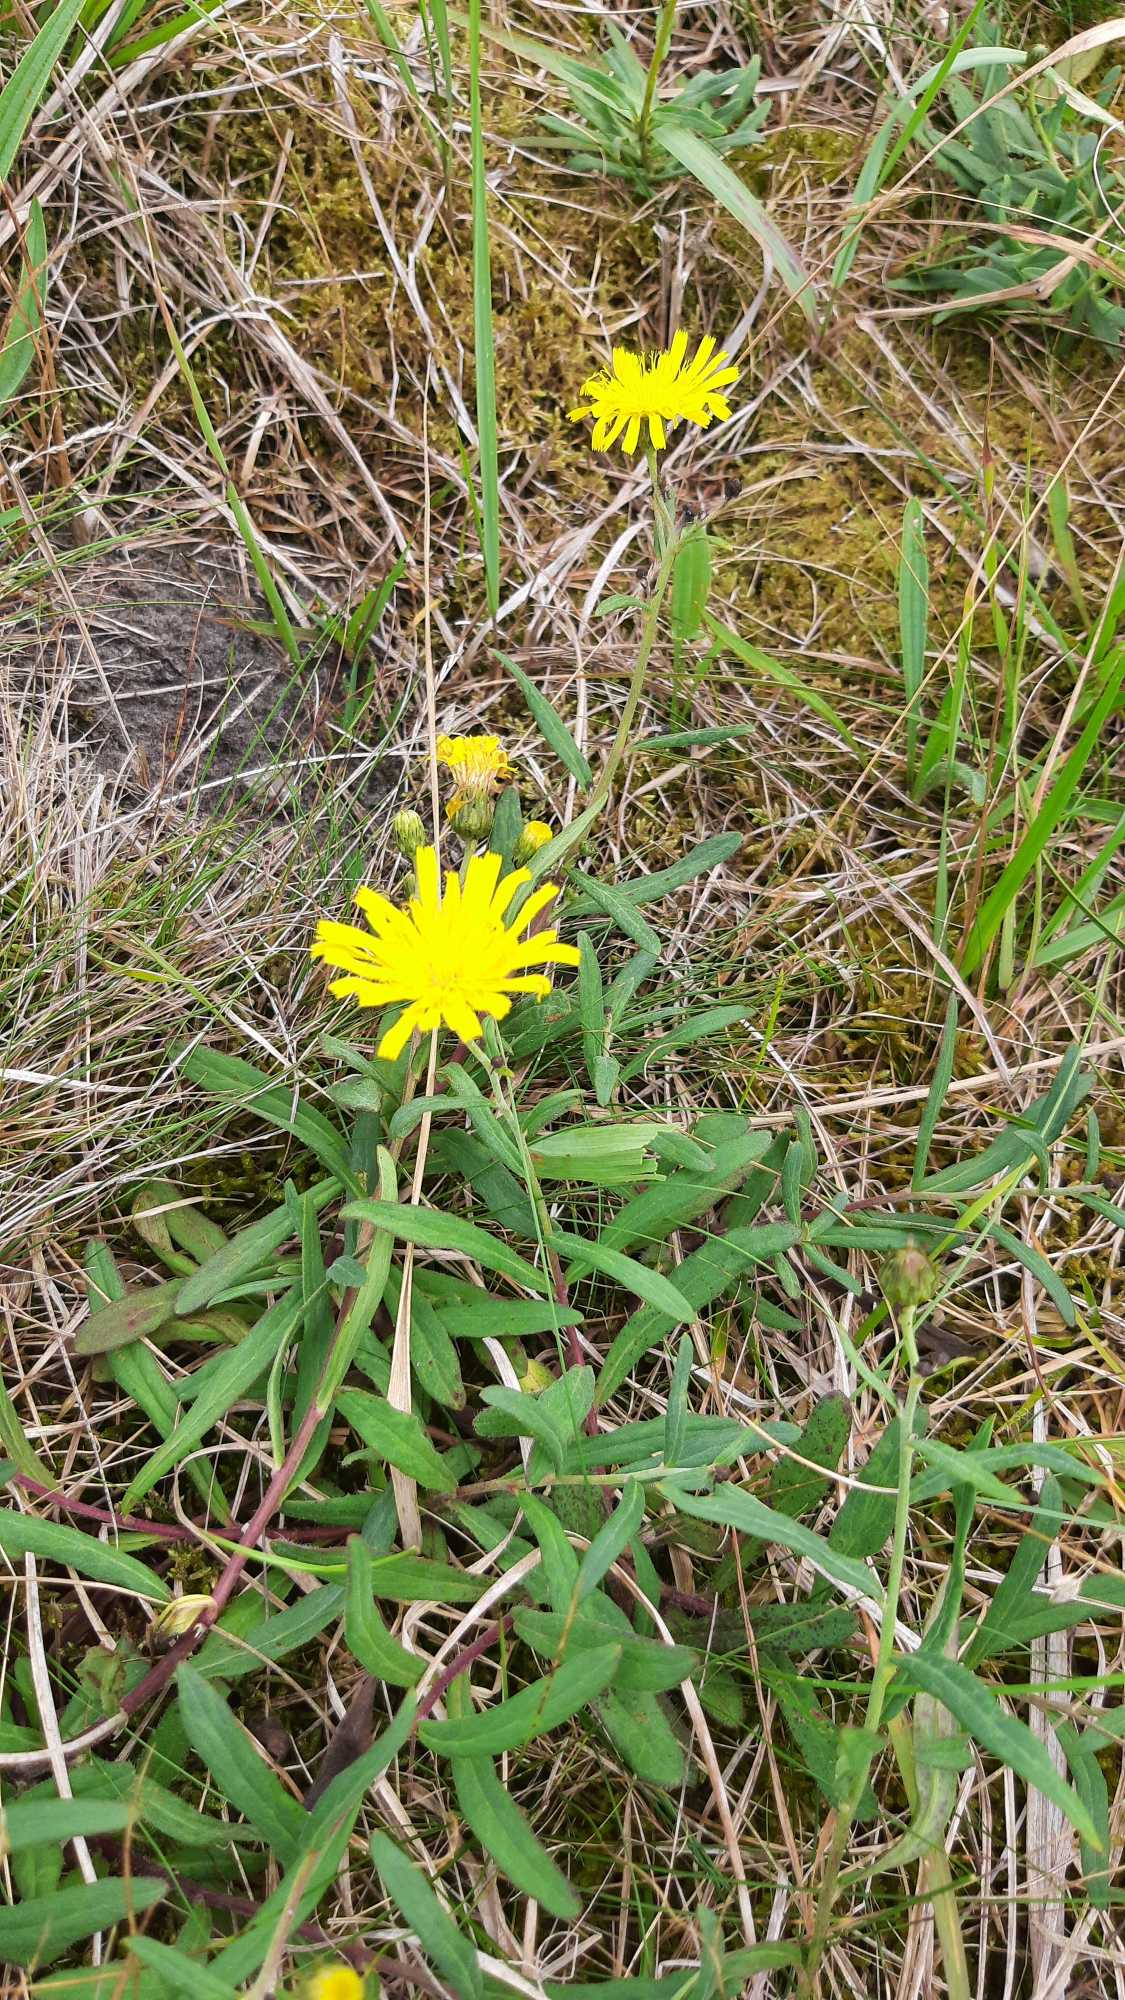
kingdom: Plantae
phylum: Tracheophyta
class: Magnoliopsida
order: Asterales
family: Asteraceae
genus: Hieracium
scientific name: Hieracium umbellatum
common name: Smalbladet høgeurt
